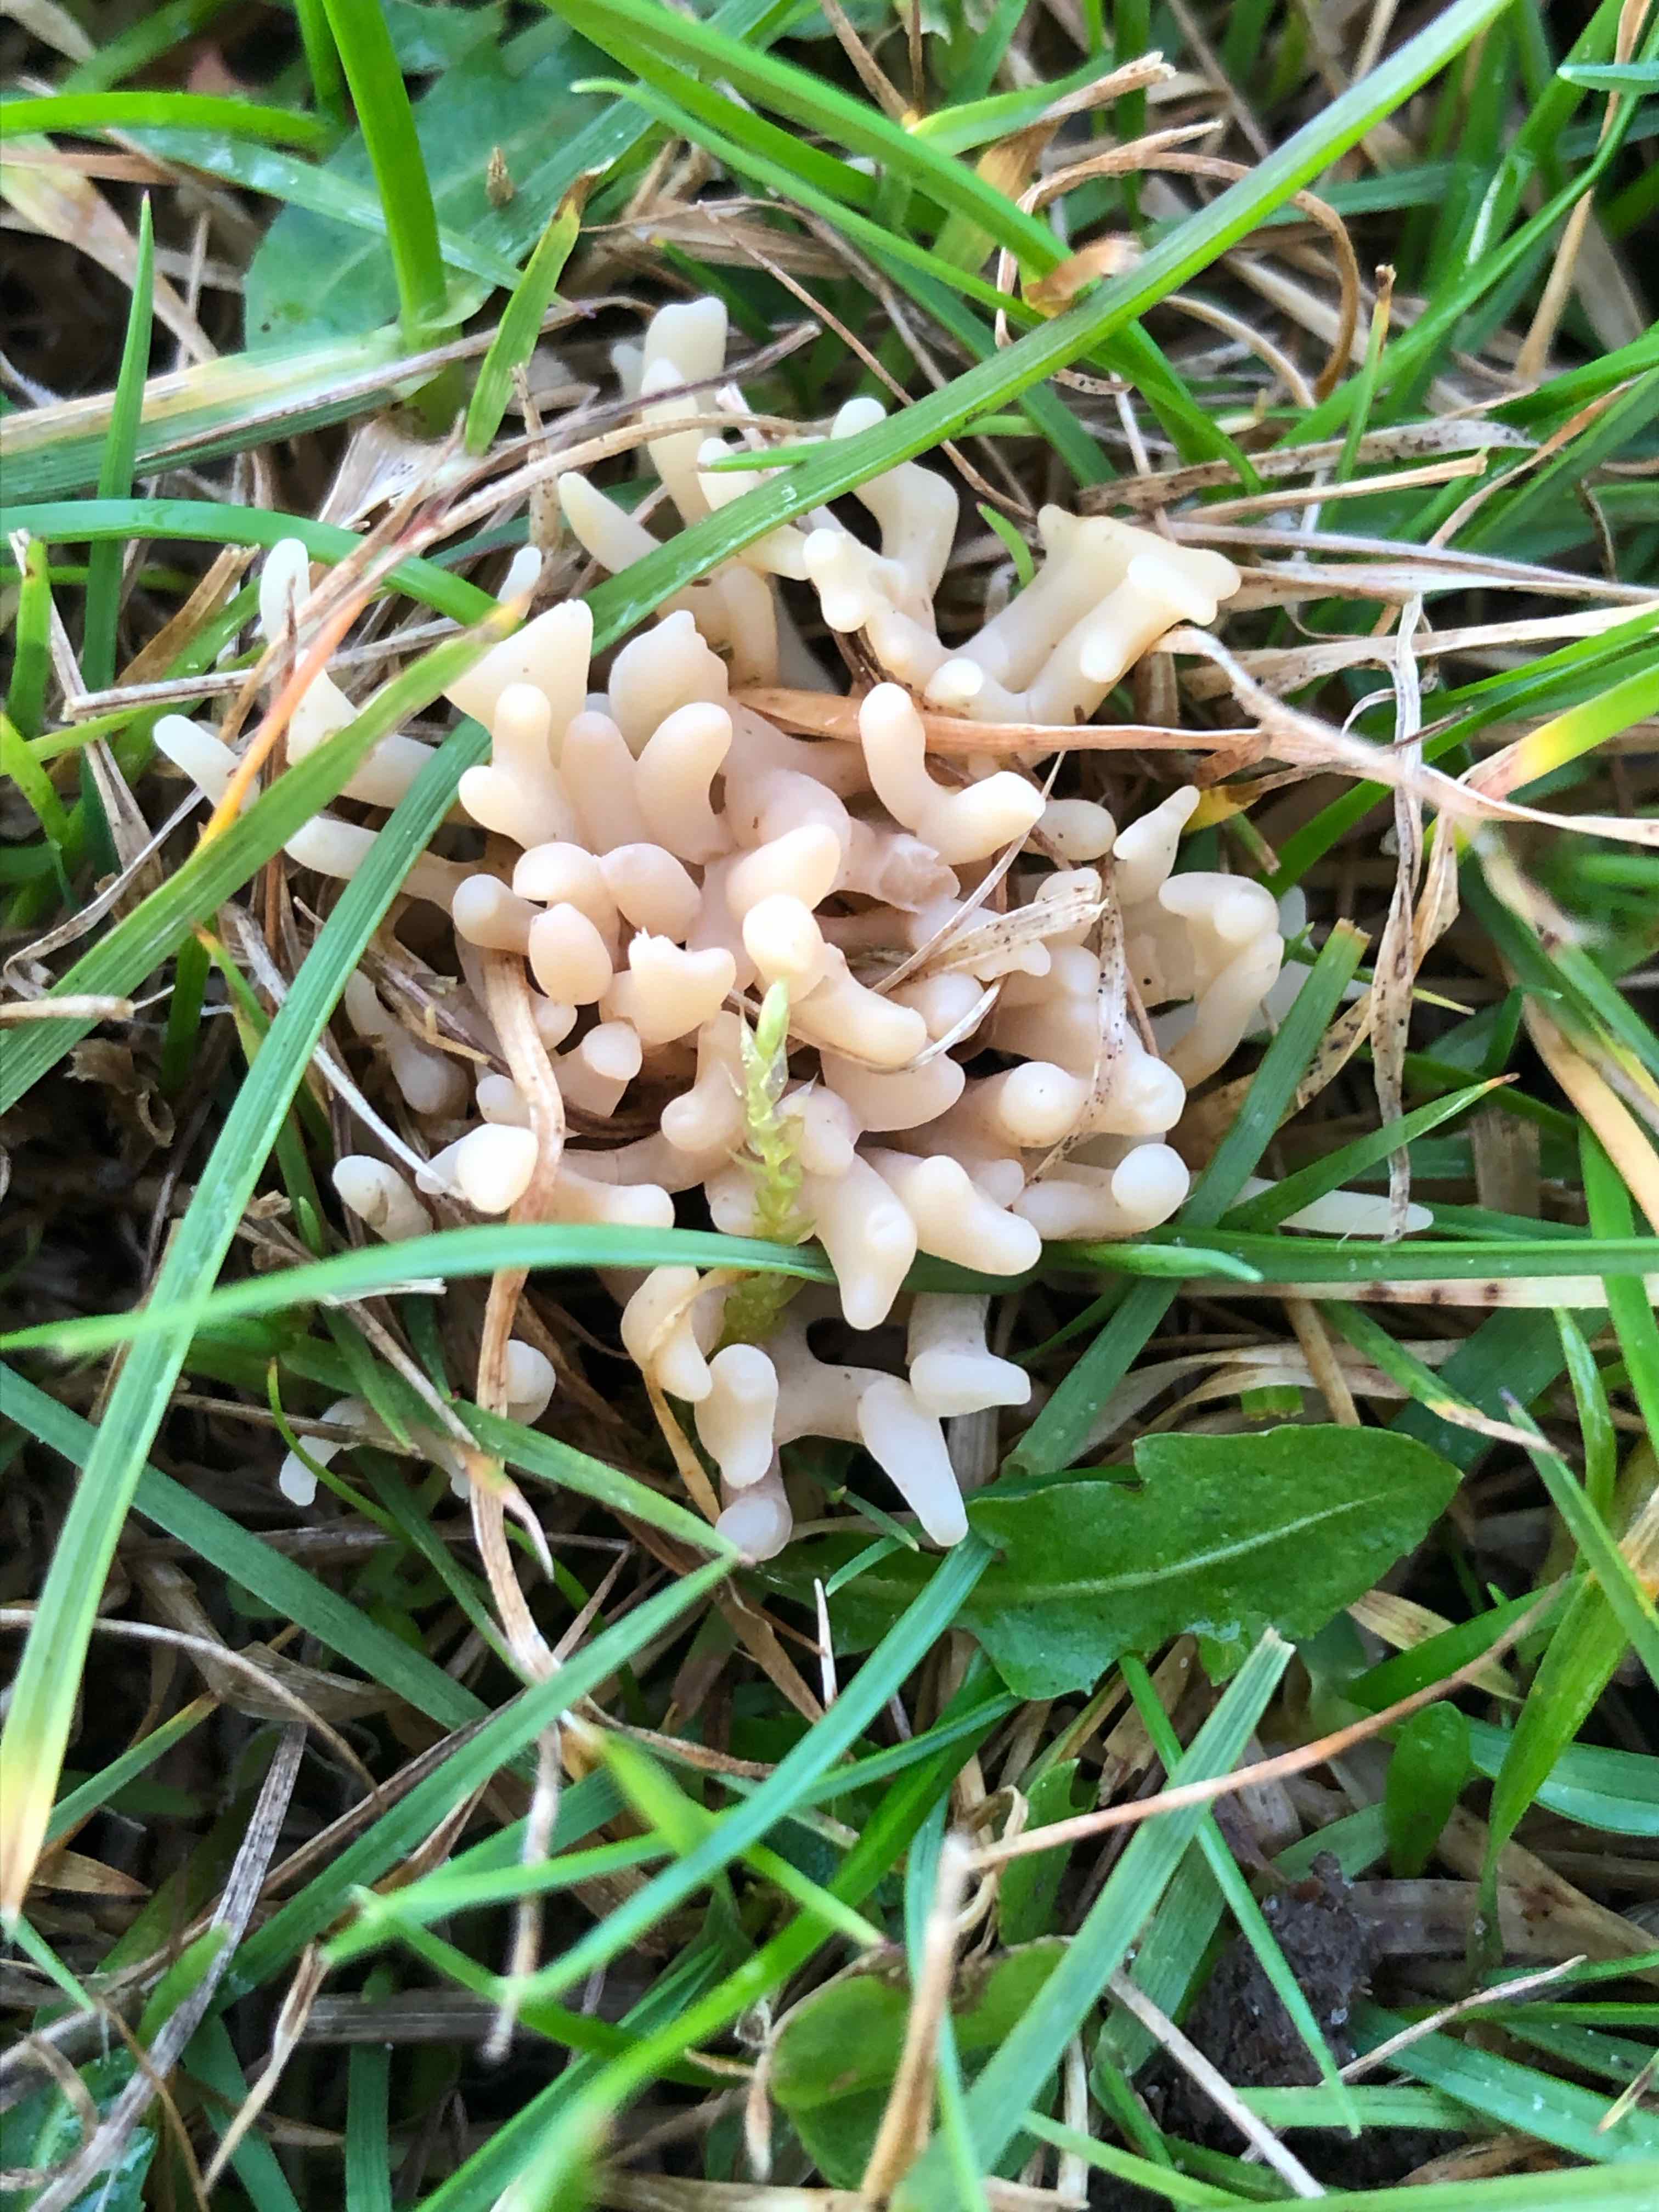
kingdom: Fungi
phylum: Basidiomycota
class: Agaricomycetes
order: Agaricales
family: Clavariaceae
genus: Clavulinopsis
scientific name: Clavulinopsis umbrinella
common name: gulgrå køllesvamp
